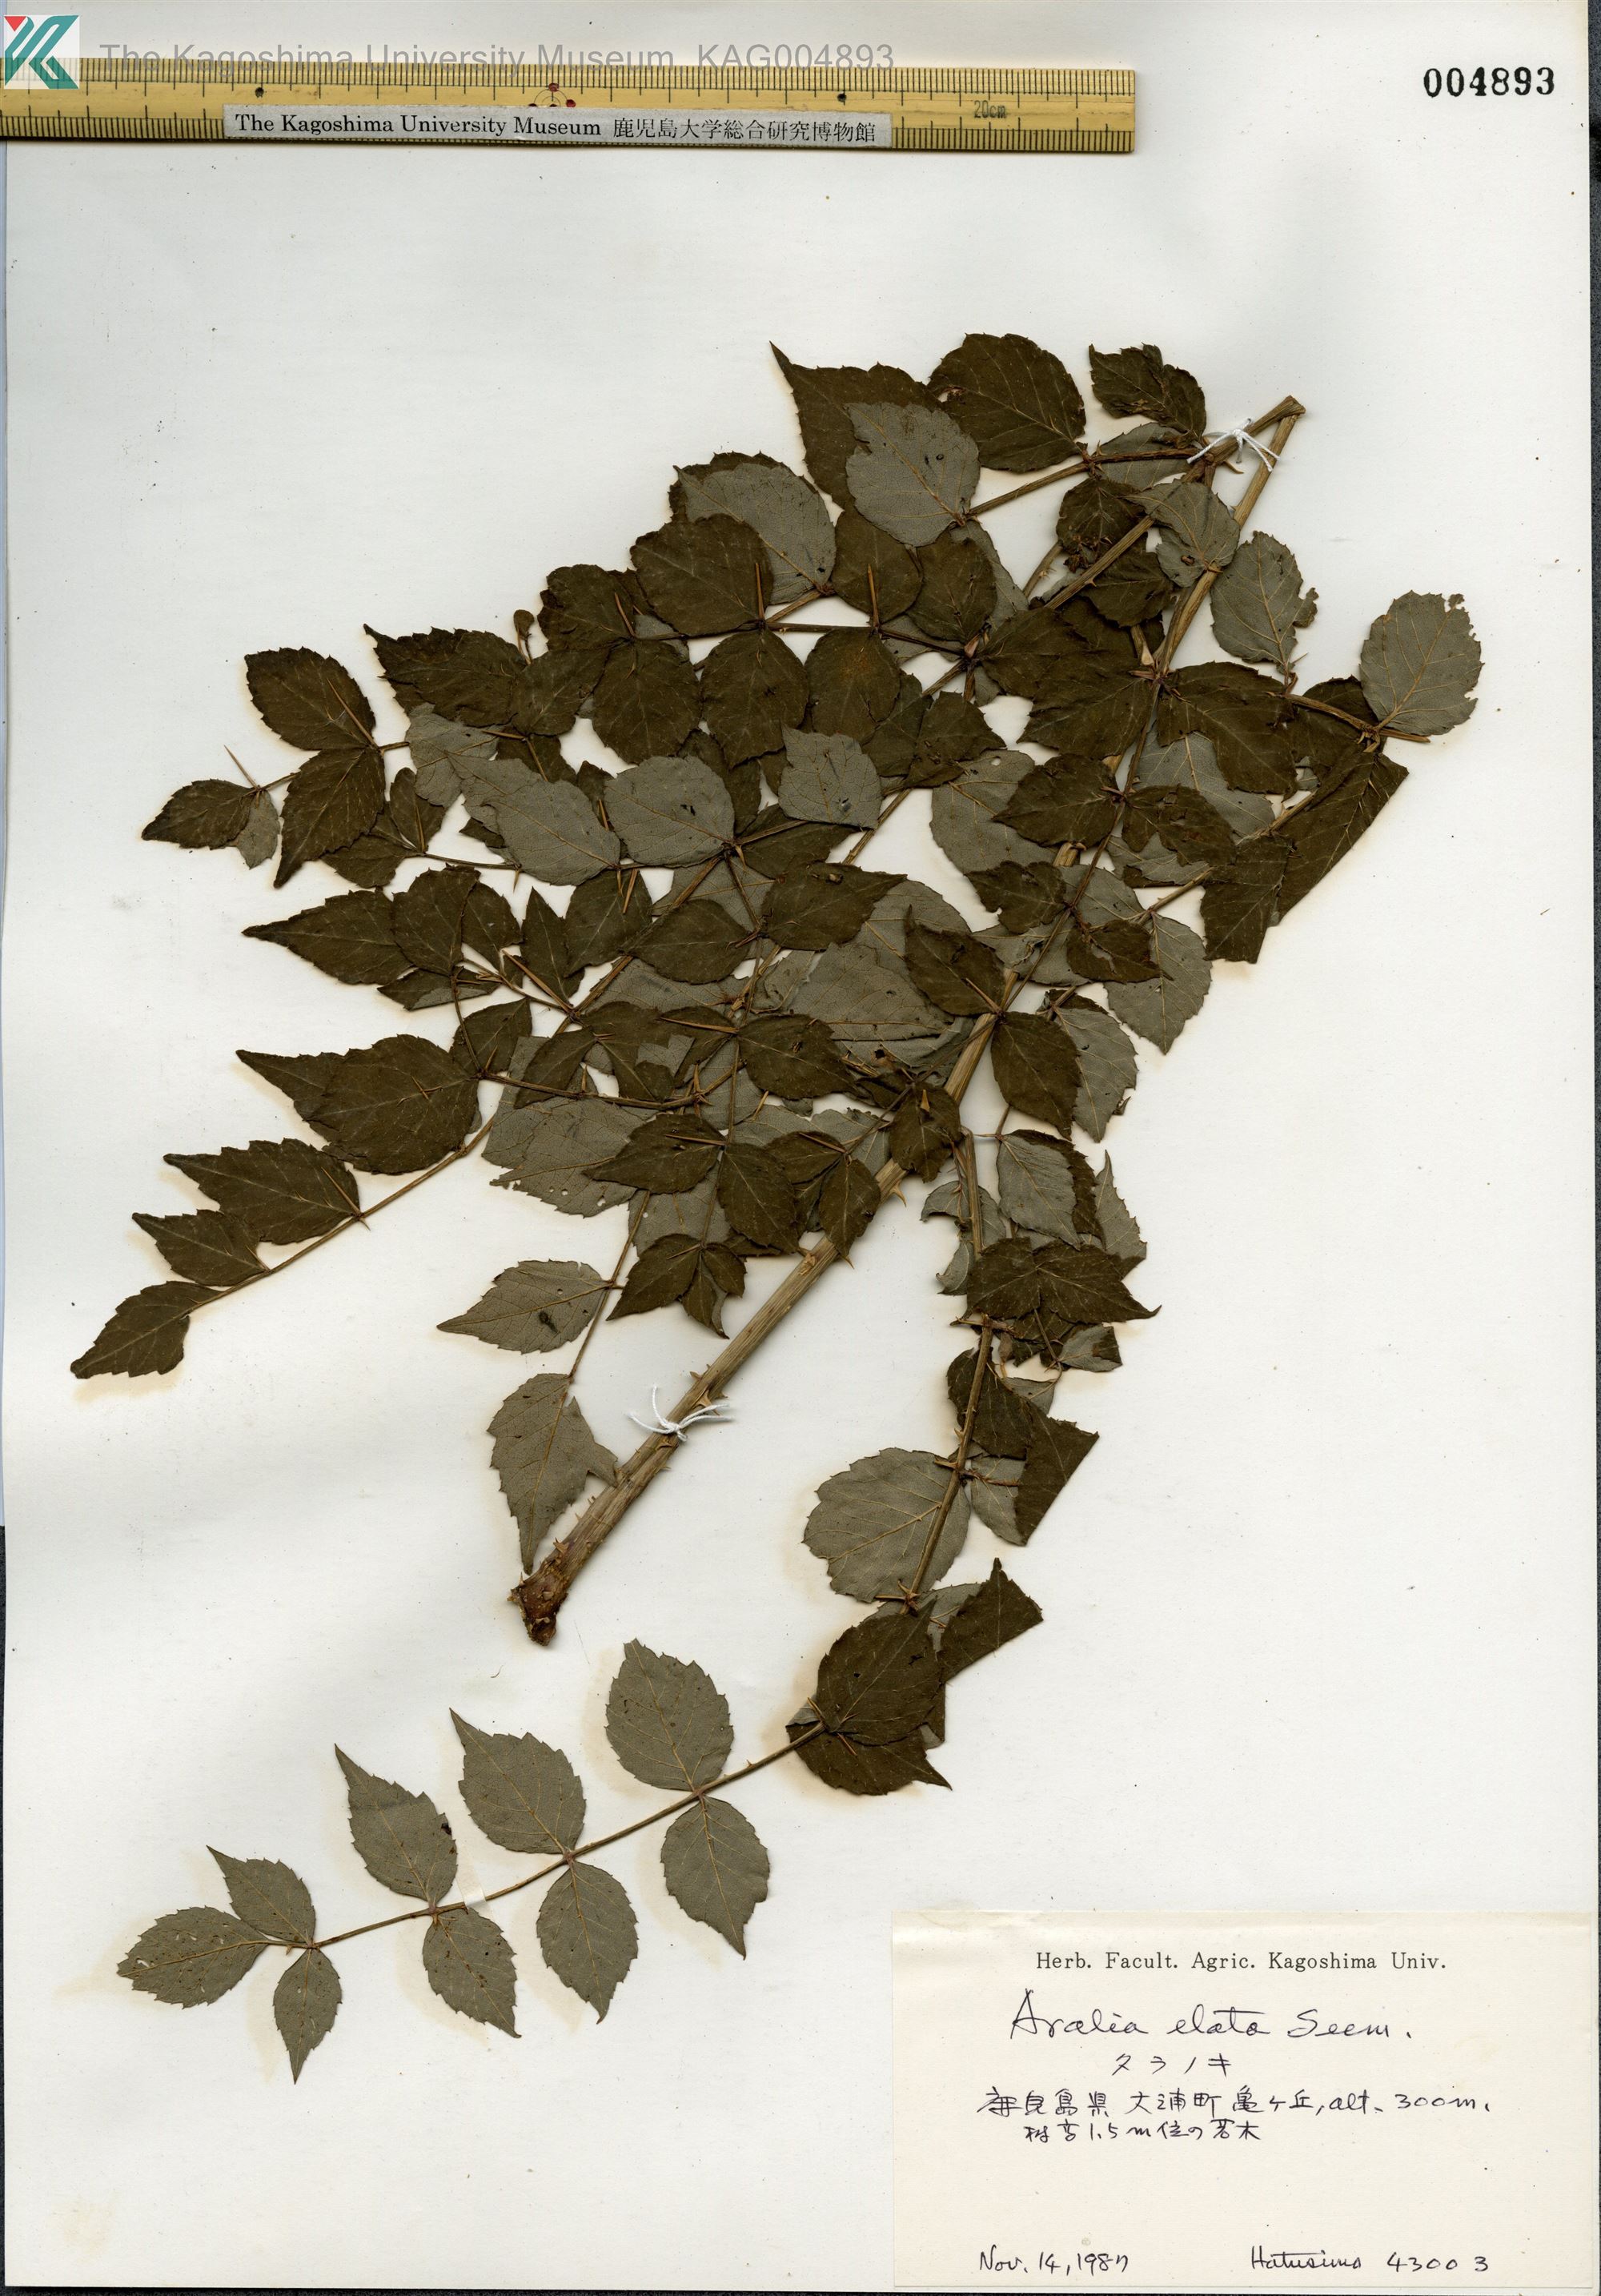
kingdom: Plantae
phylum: Tracheophyta
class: Magnoliopsida
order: Apiales
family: Araliaceae
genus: Aralia
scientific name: Aralia elata
